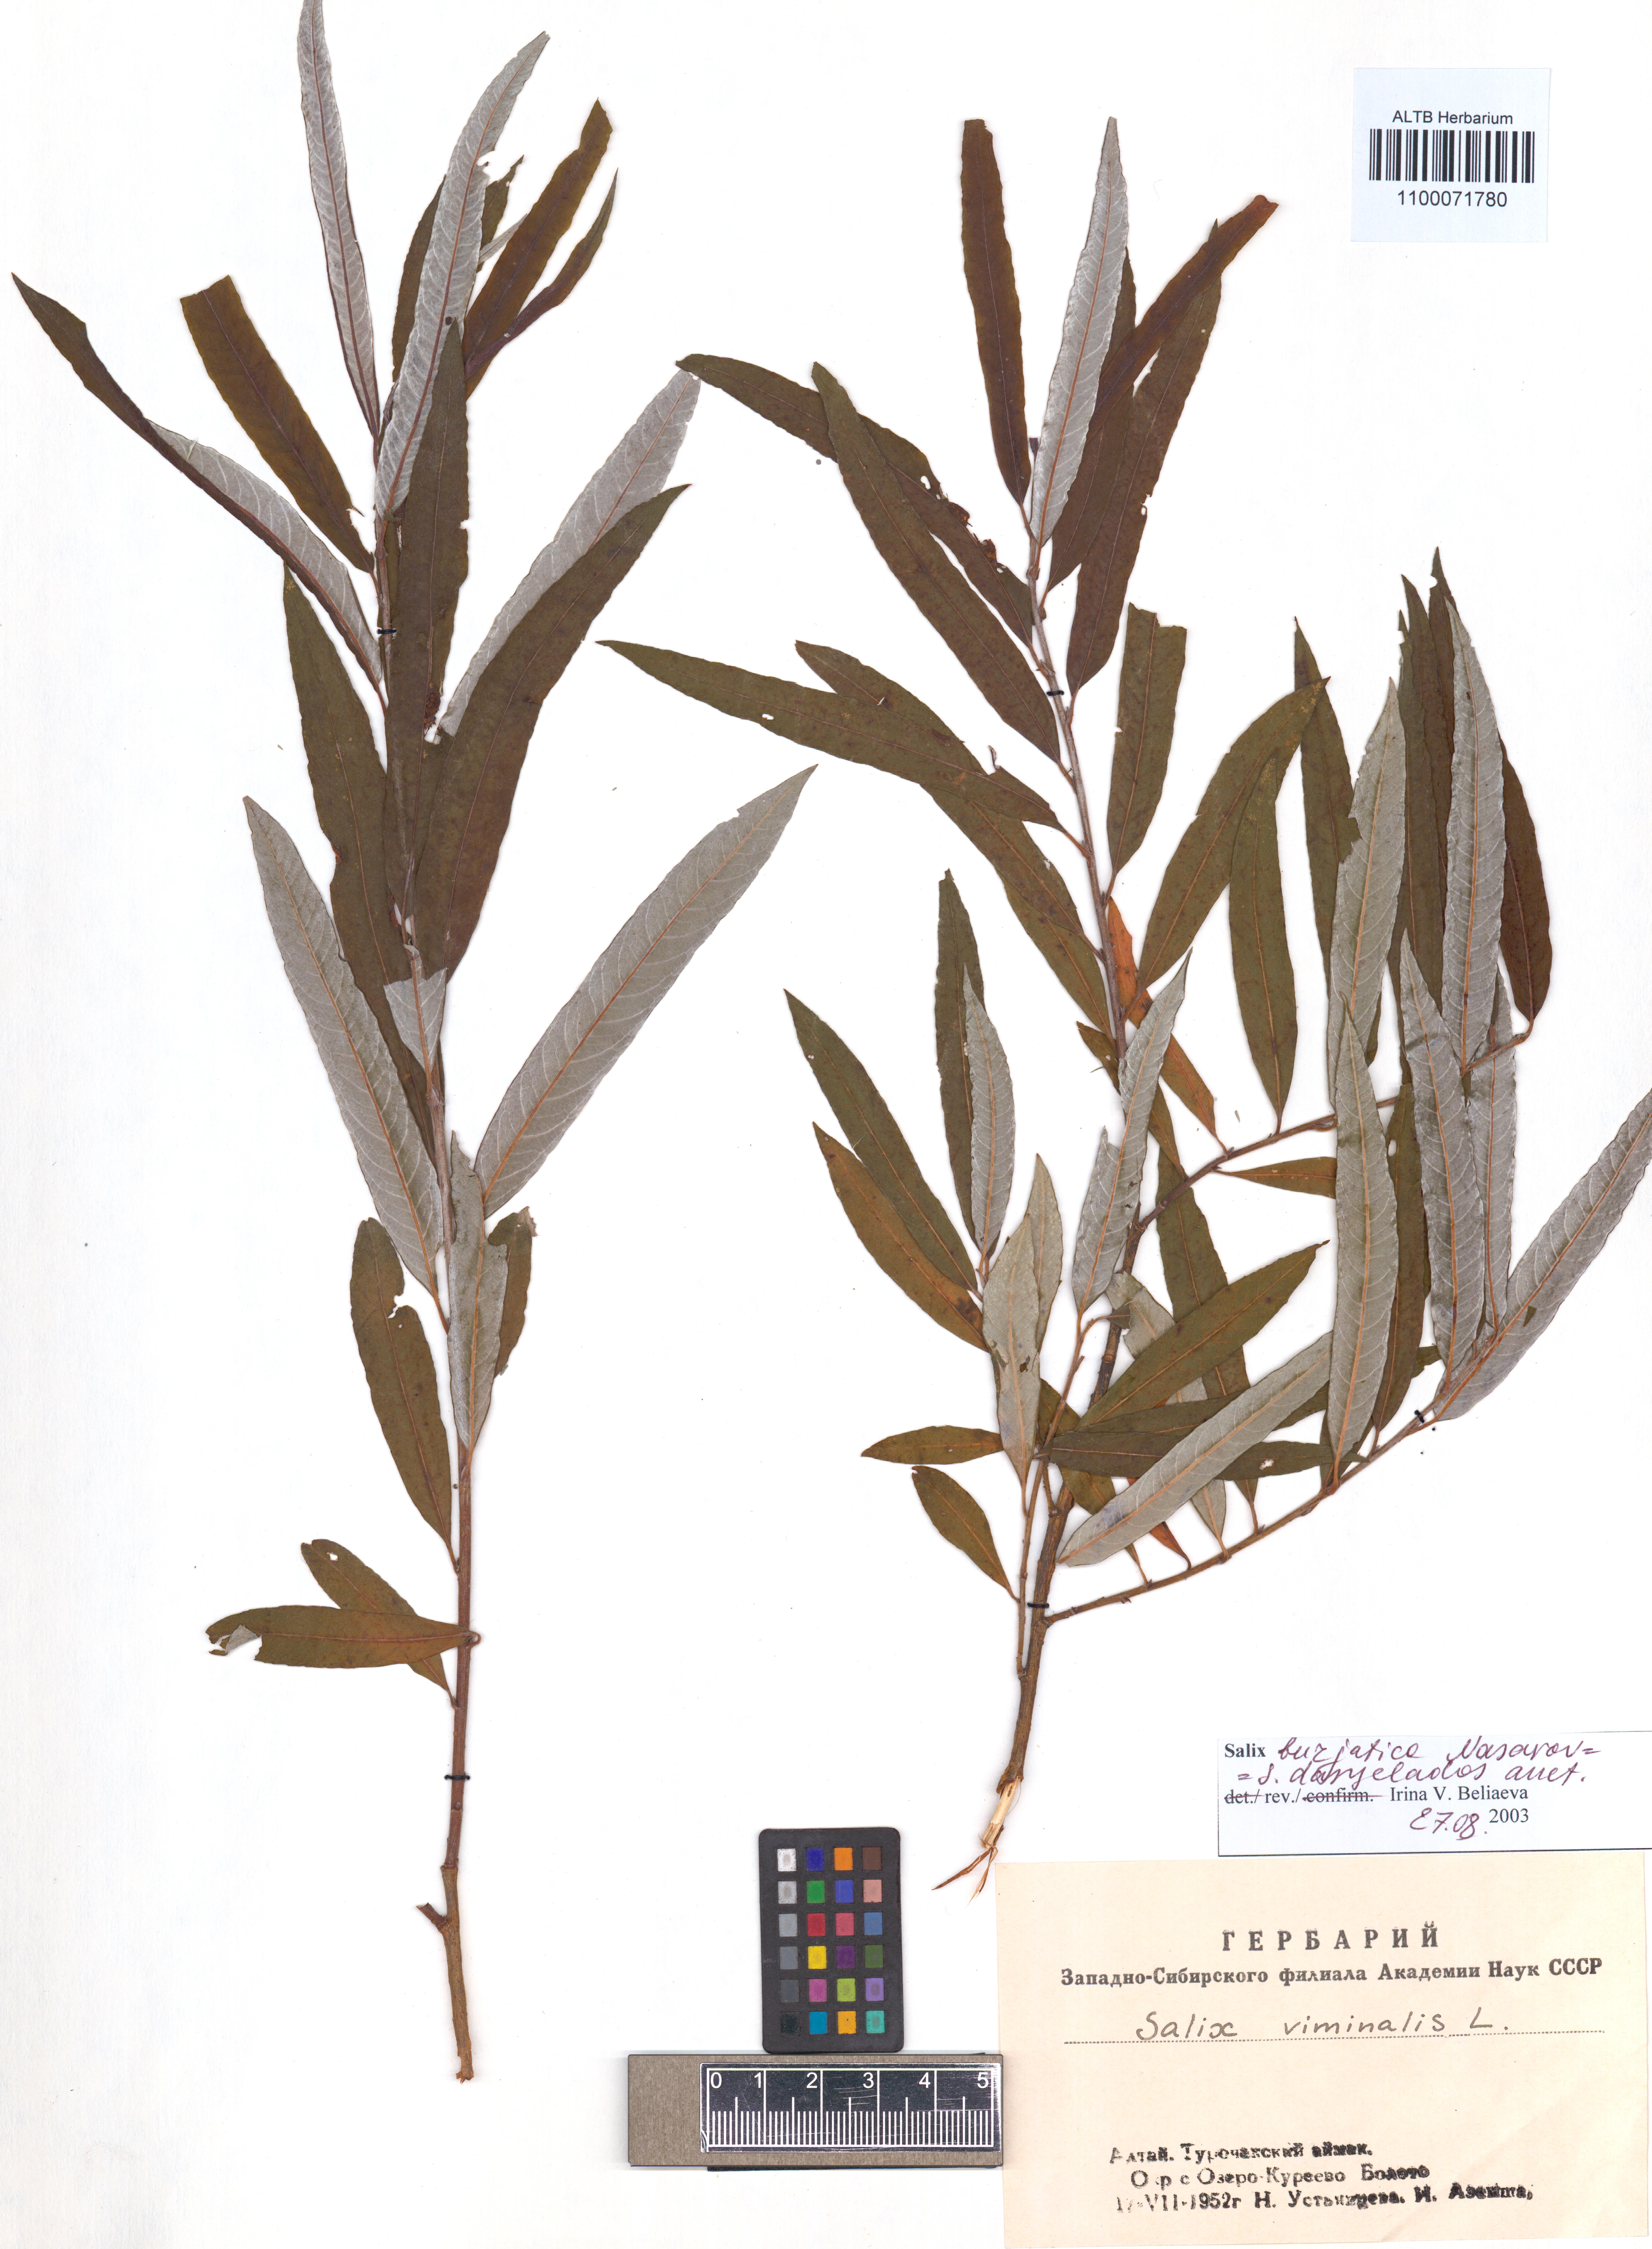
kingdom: Plantae
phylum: Tracheophyta
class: Magnoliopsida
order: Malpighiales
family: Salicaceae
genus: Salix
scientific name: Salix gmelinii
